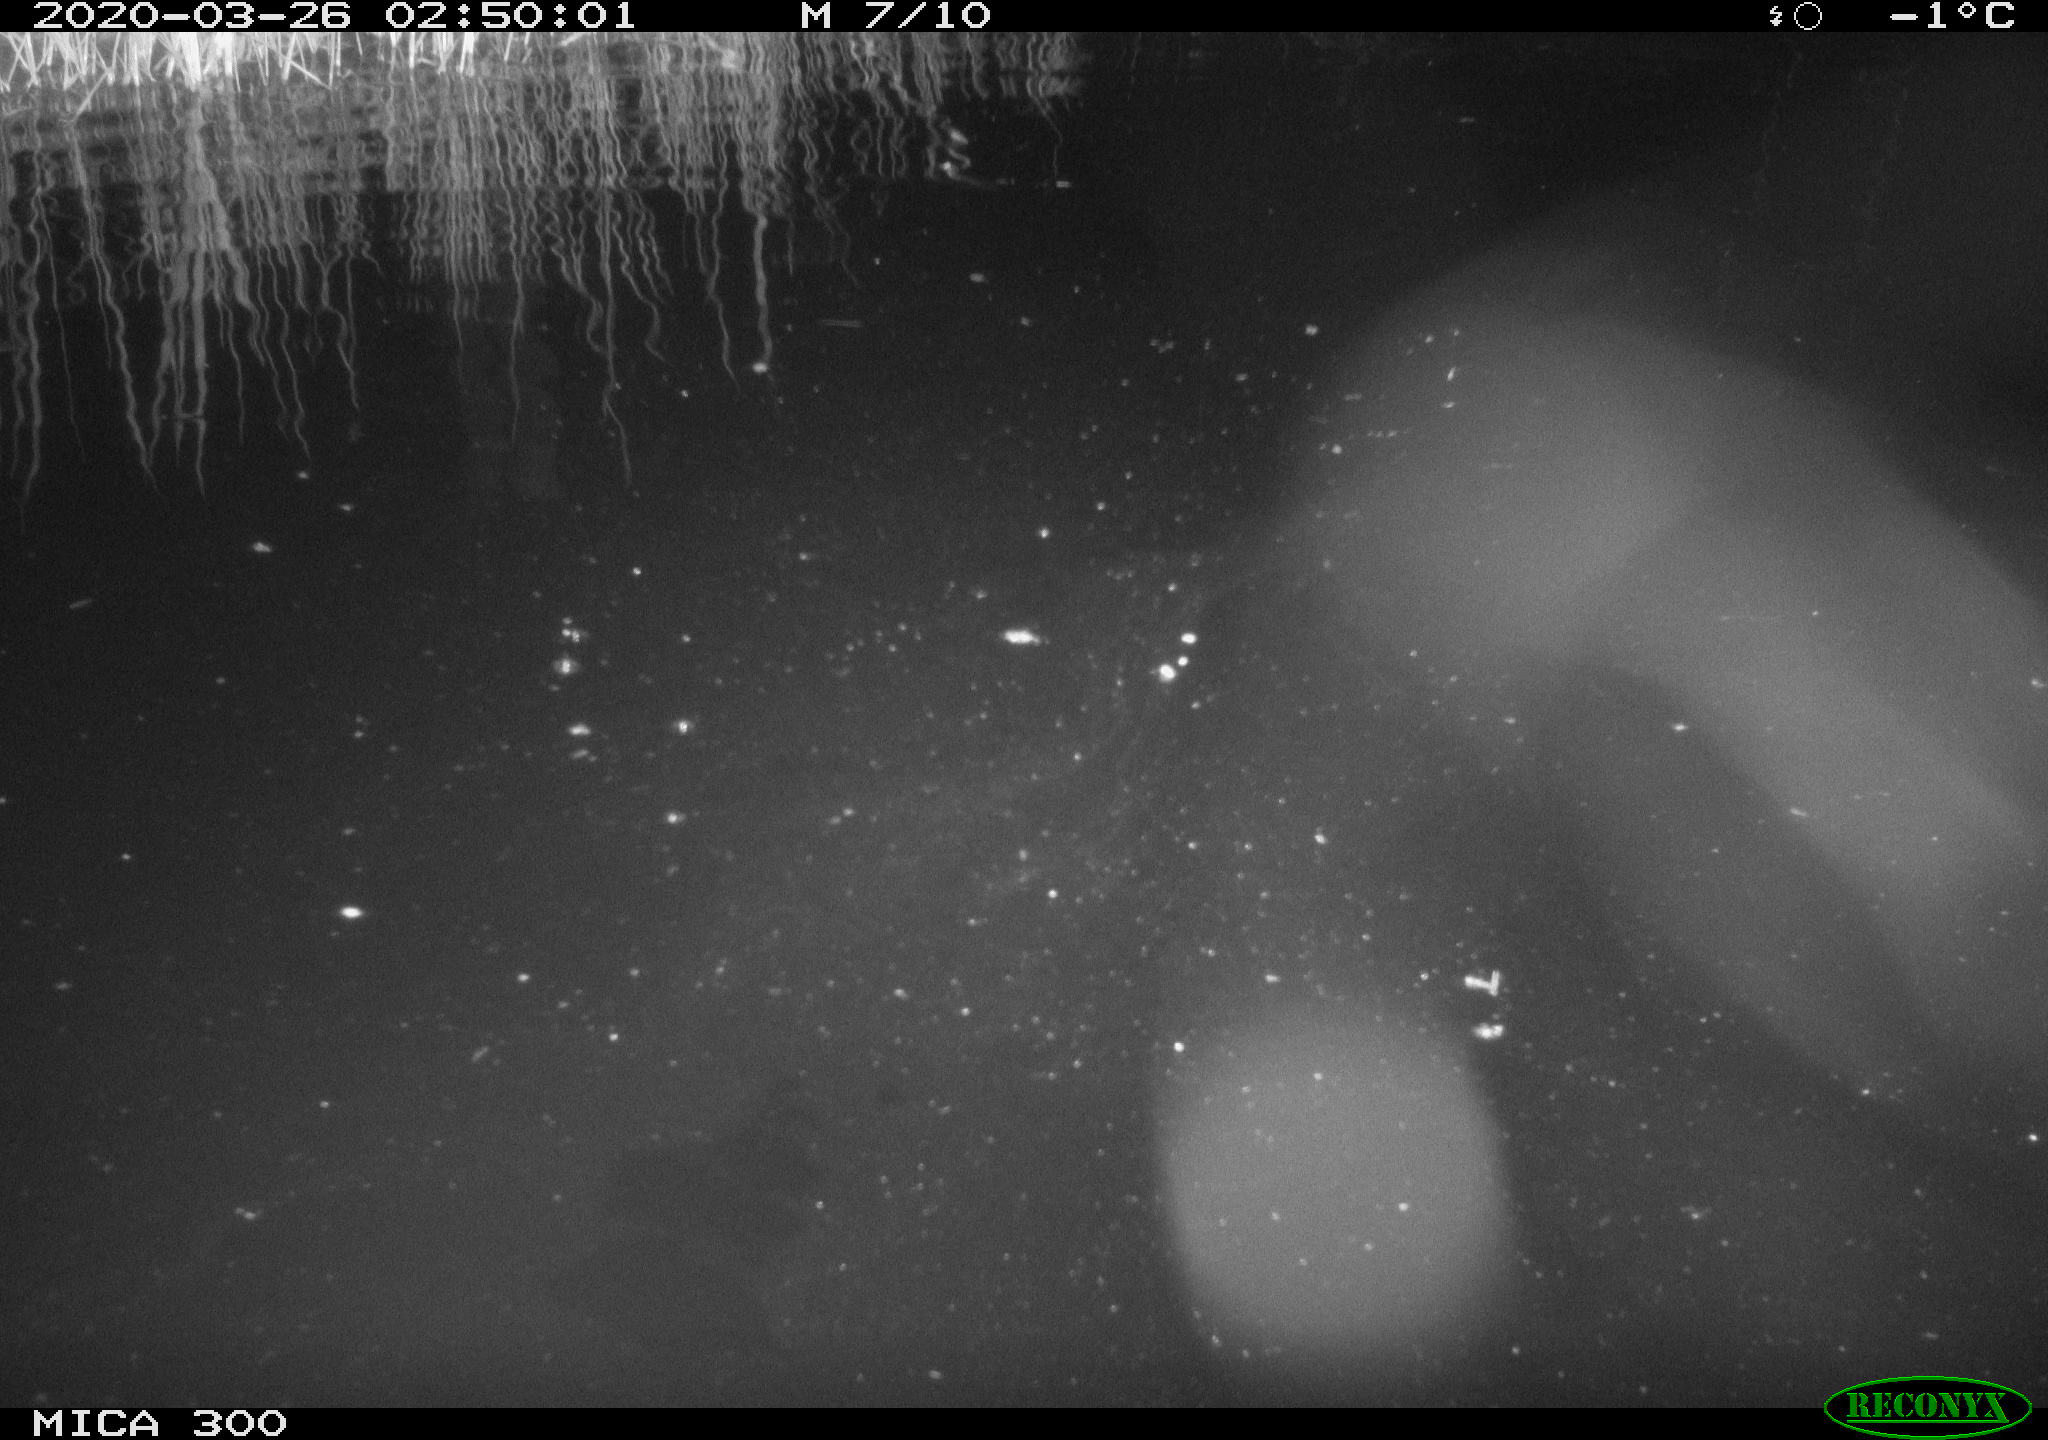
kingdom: Animalia
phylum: Chordata
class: Mammalia
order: Rodentia
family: Castoridae
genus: Castor
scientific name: Castor fiber
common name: Eurasian beaver
